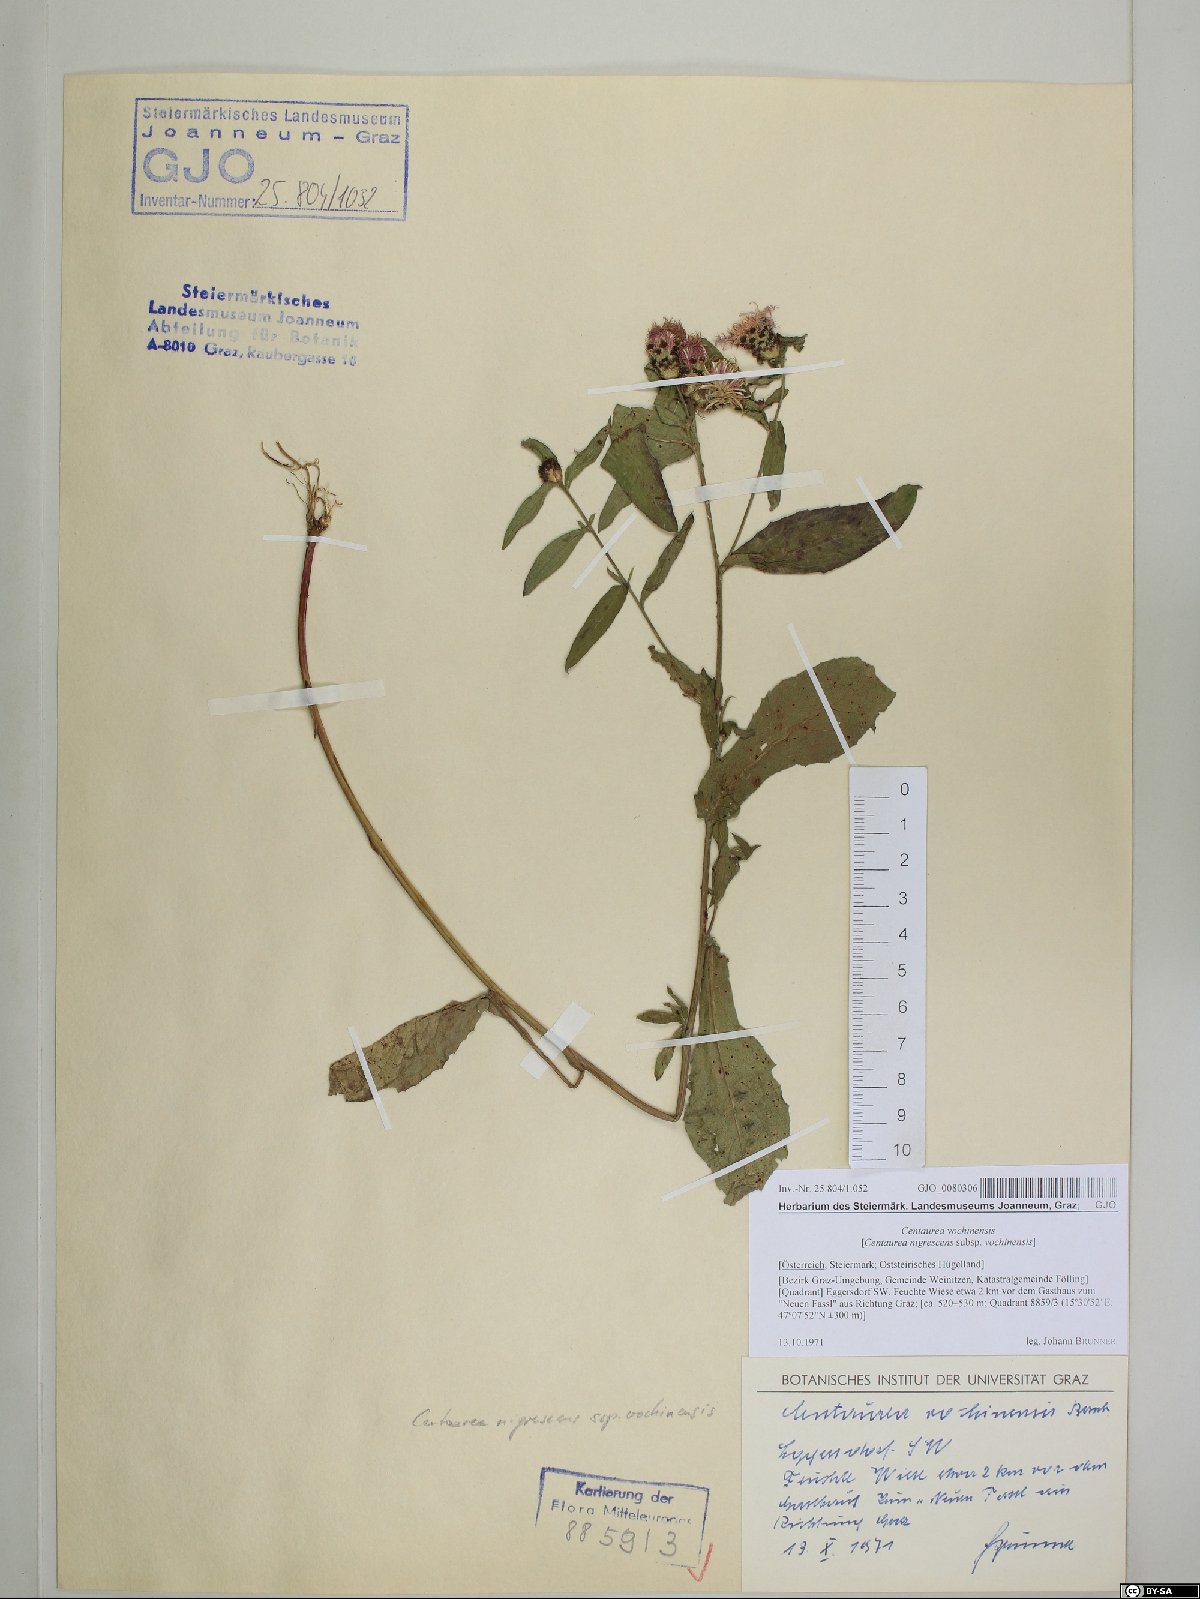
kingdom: Plantae
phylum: Tracheophyta
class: Magnoliopsida
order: Asterales
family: Asteraceae
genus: Centaurea
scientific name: Centaurea carniolica
